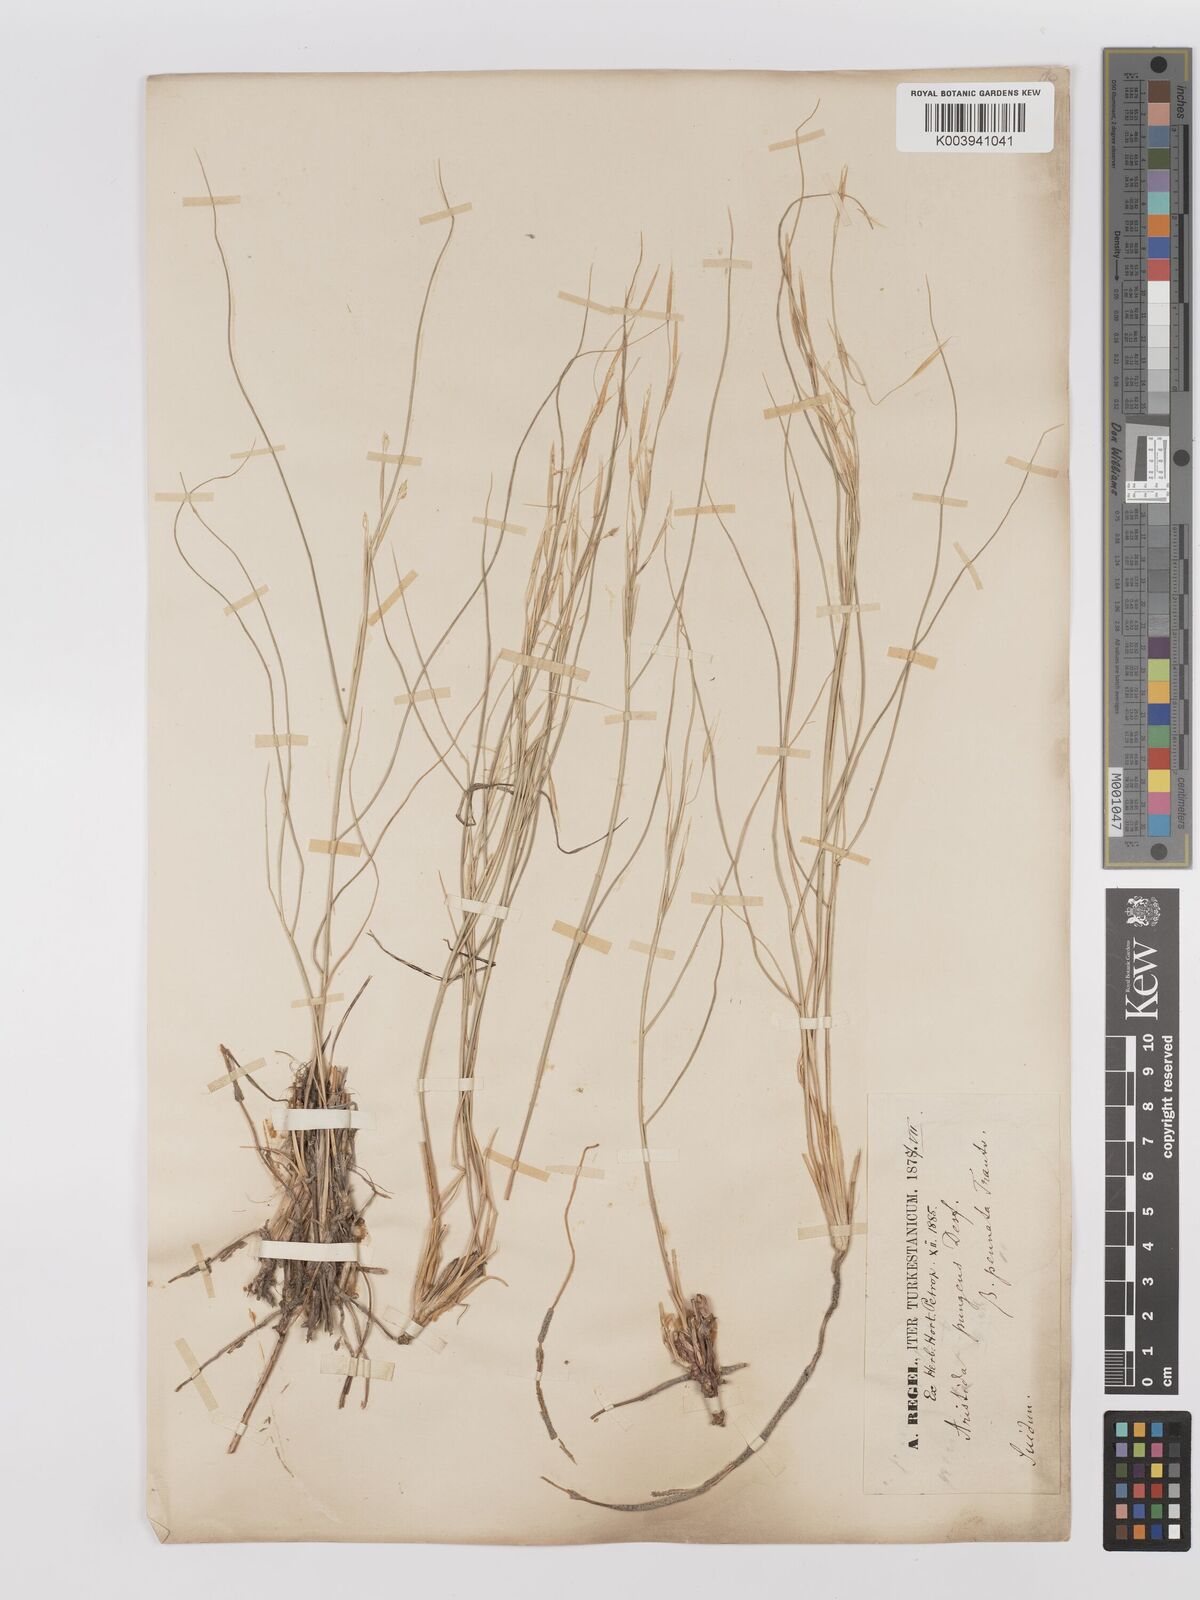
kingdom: Plantae
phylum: Tracheophyta
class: Liliopsida
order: Poales
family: Poaceae
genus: Stipagrostis
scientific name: Stipagrostis pungens
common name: Three-awn grass
